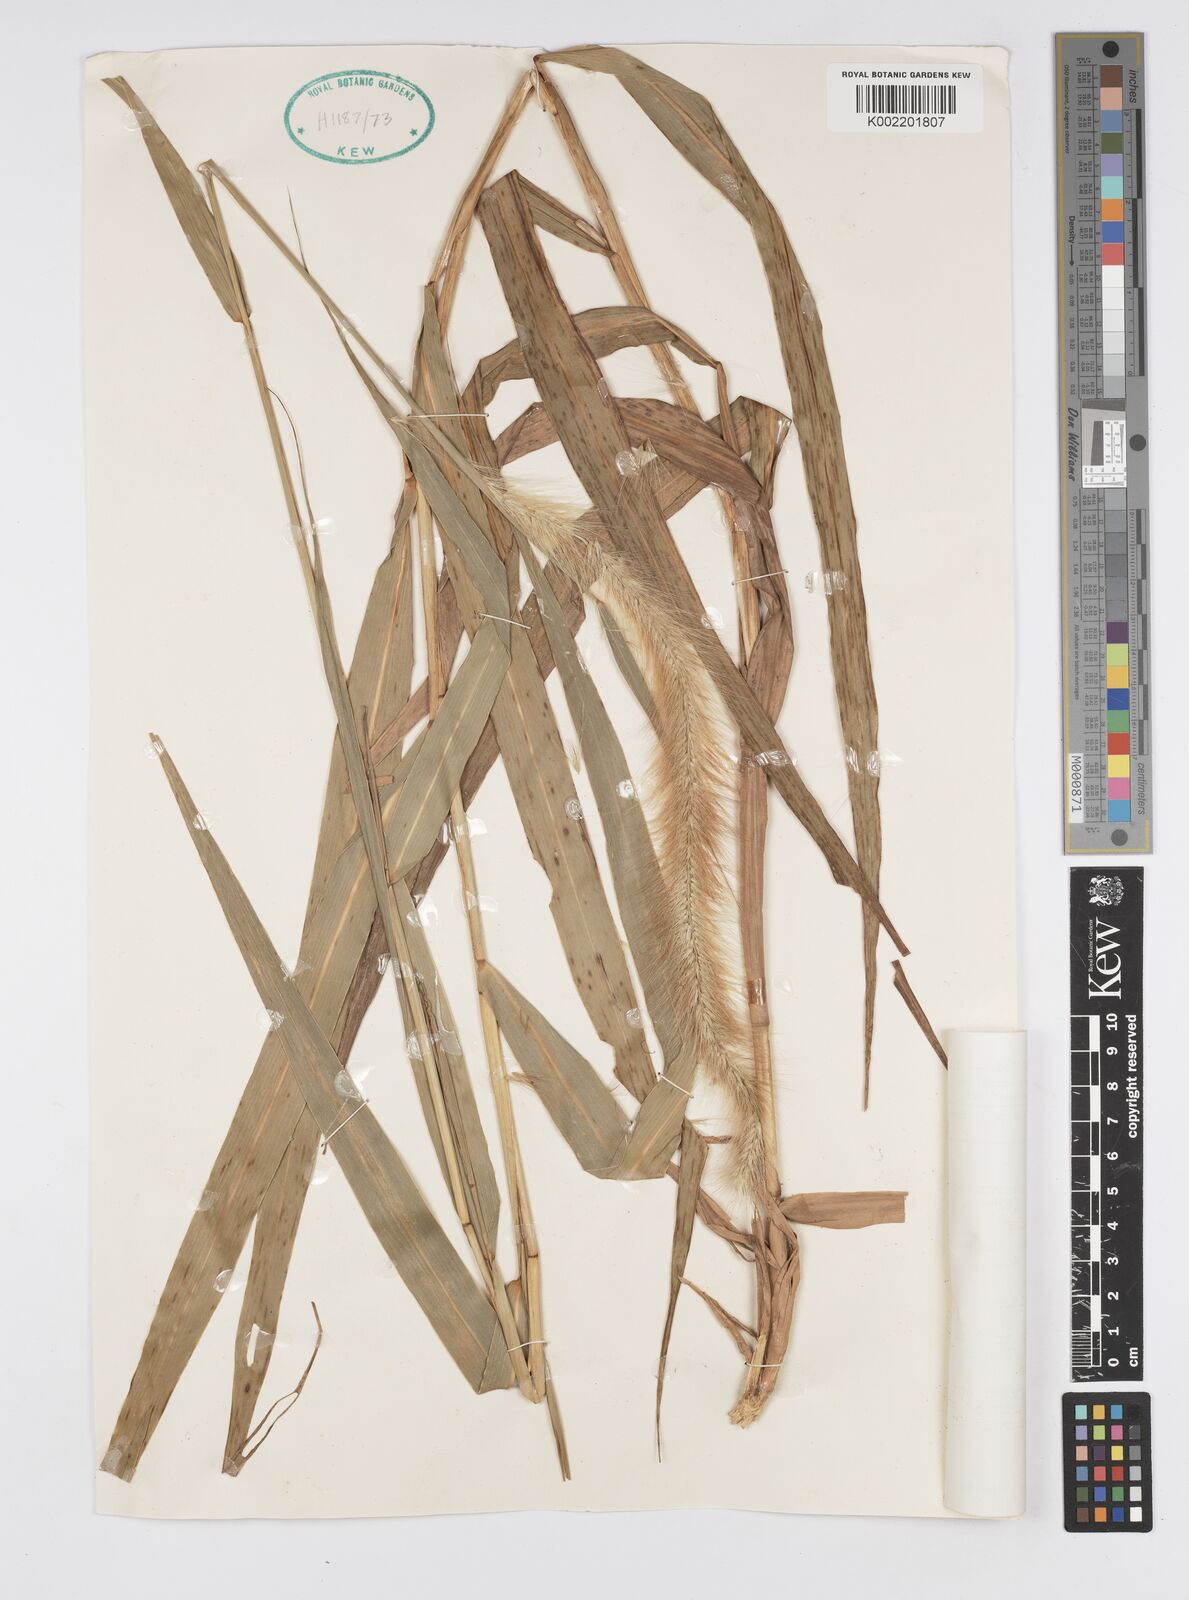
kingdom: Plantae
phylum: Tracheophyta
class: Liliopsida
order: Poales
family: Poaceae
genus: Cenchrus
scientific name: Cenchrus purpureus
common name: Elephant grass
